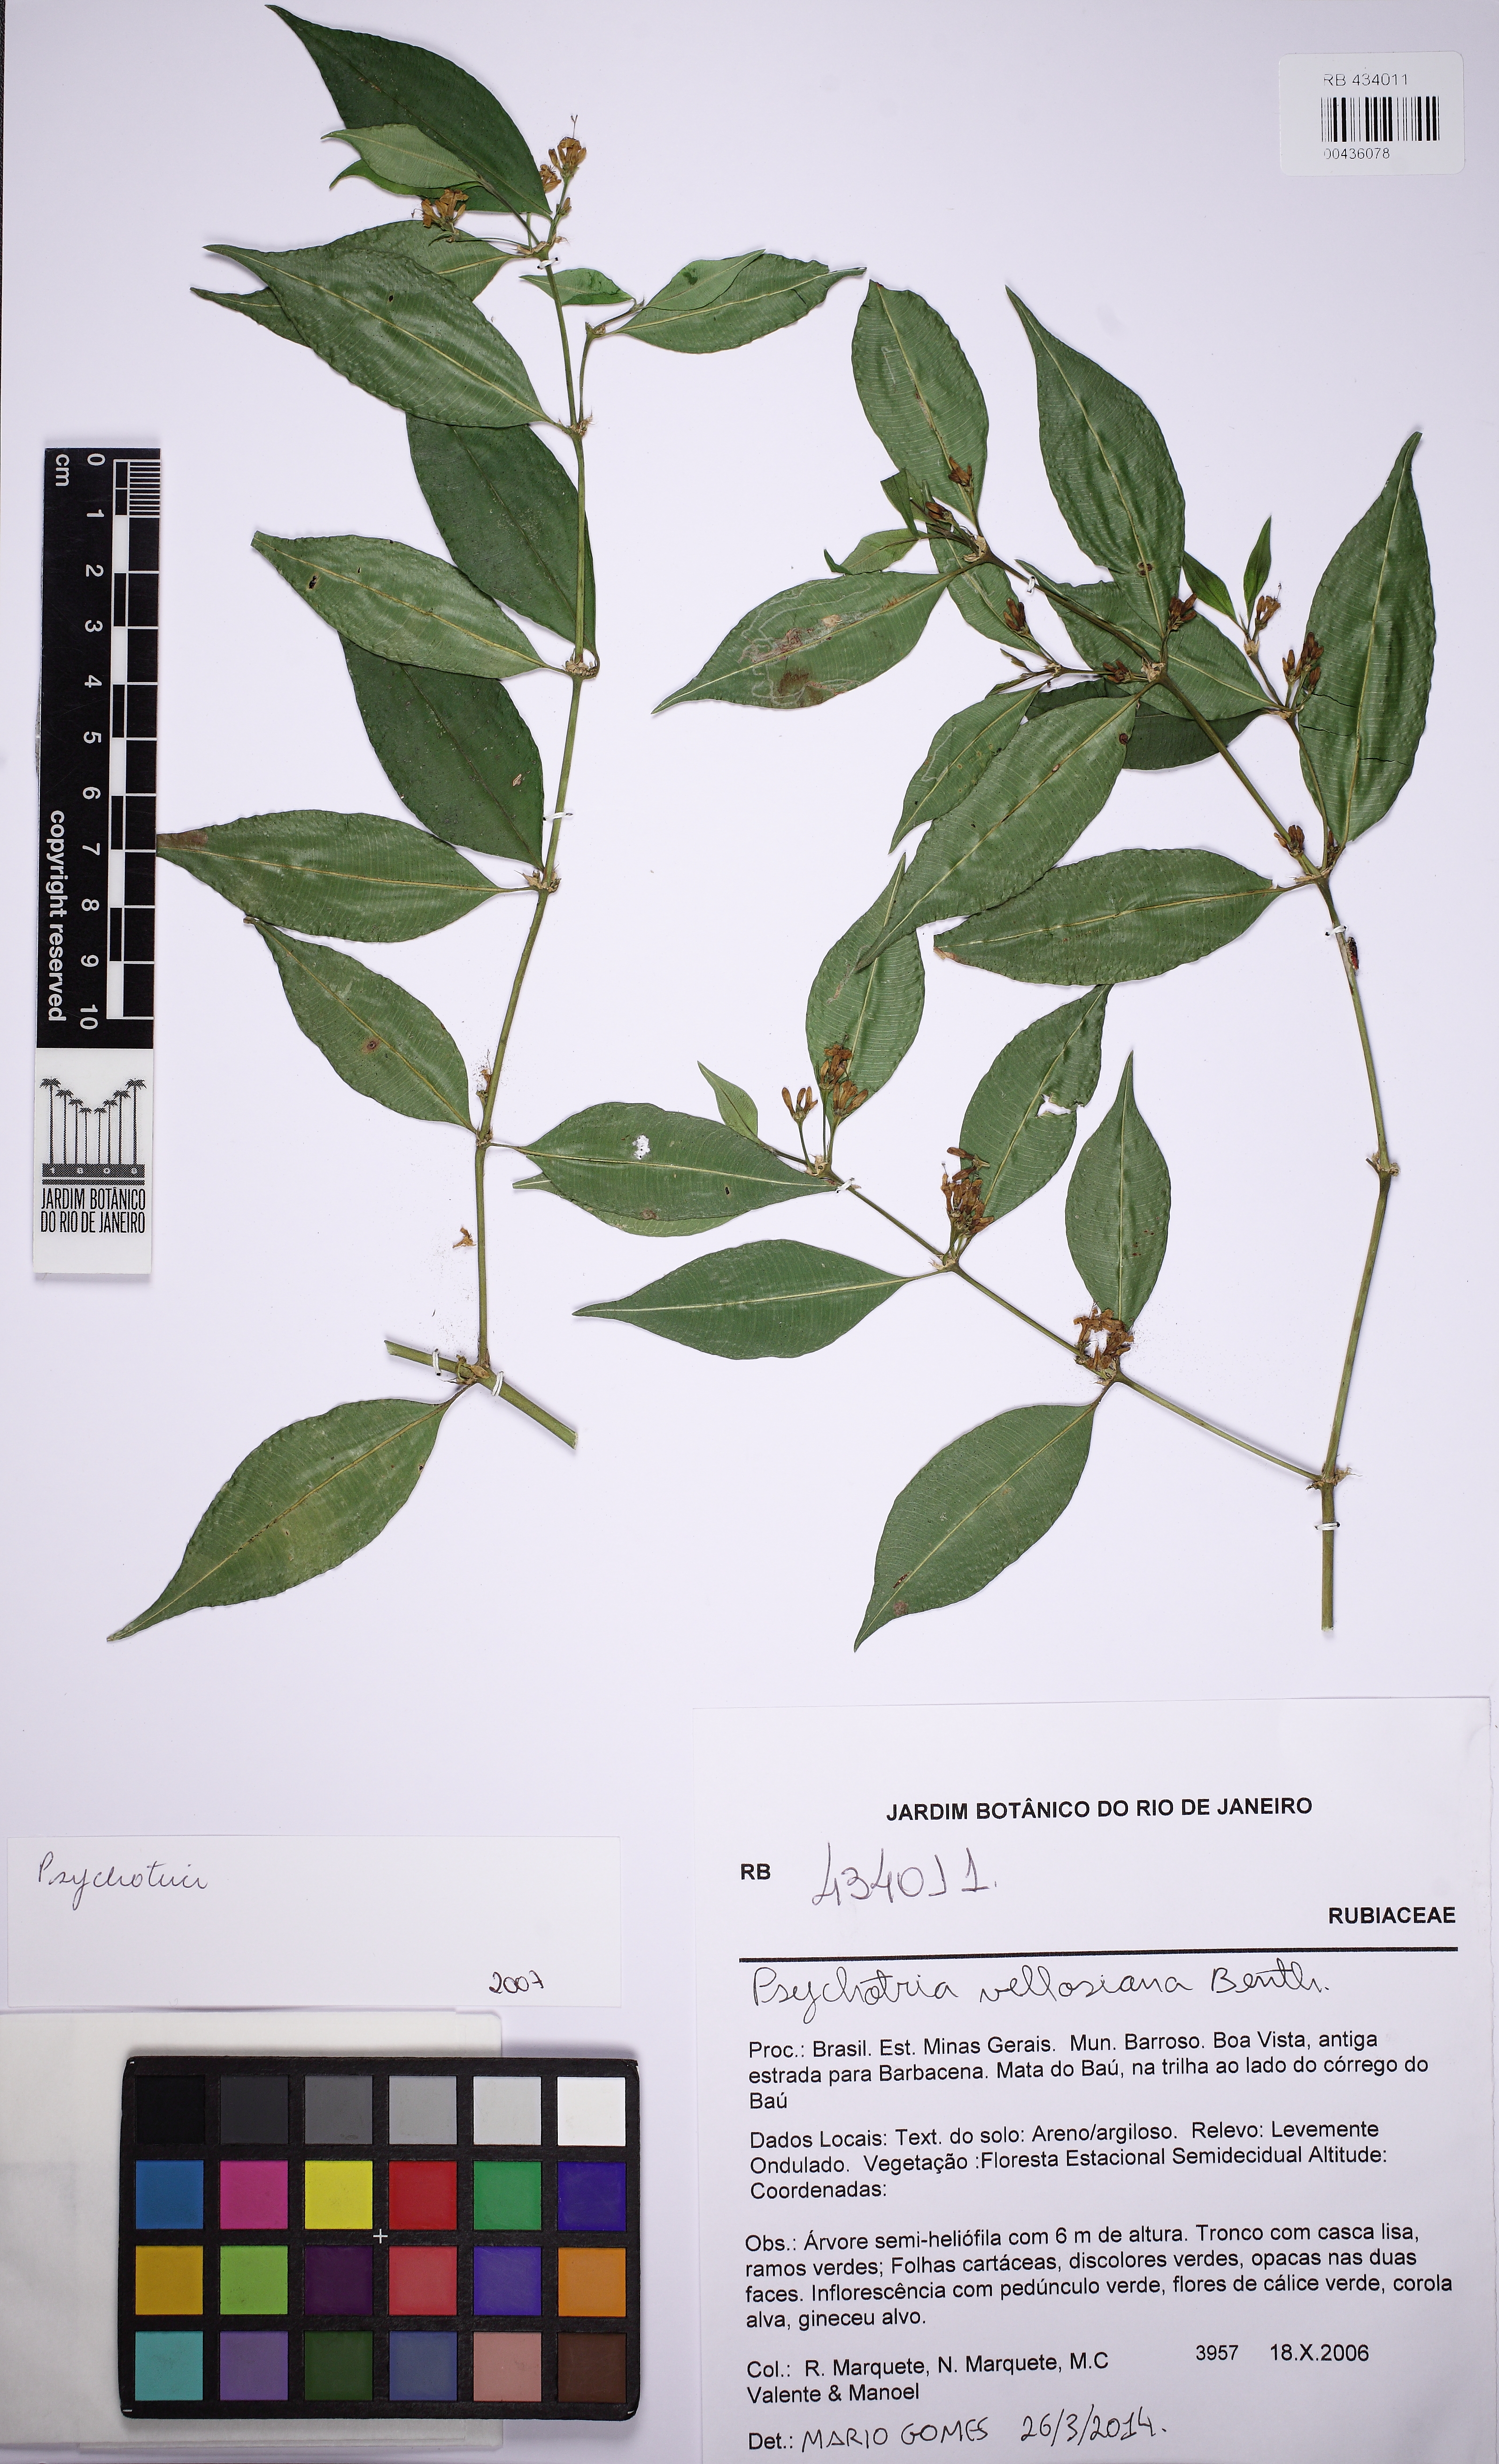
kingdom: Plantae
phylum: Tracheophyta
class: Magnoliopsida
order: Gentianales
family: Rubiaceae
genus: Palicourea
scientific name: Palicourea sessilis
